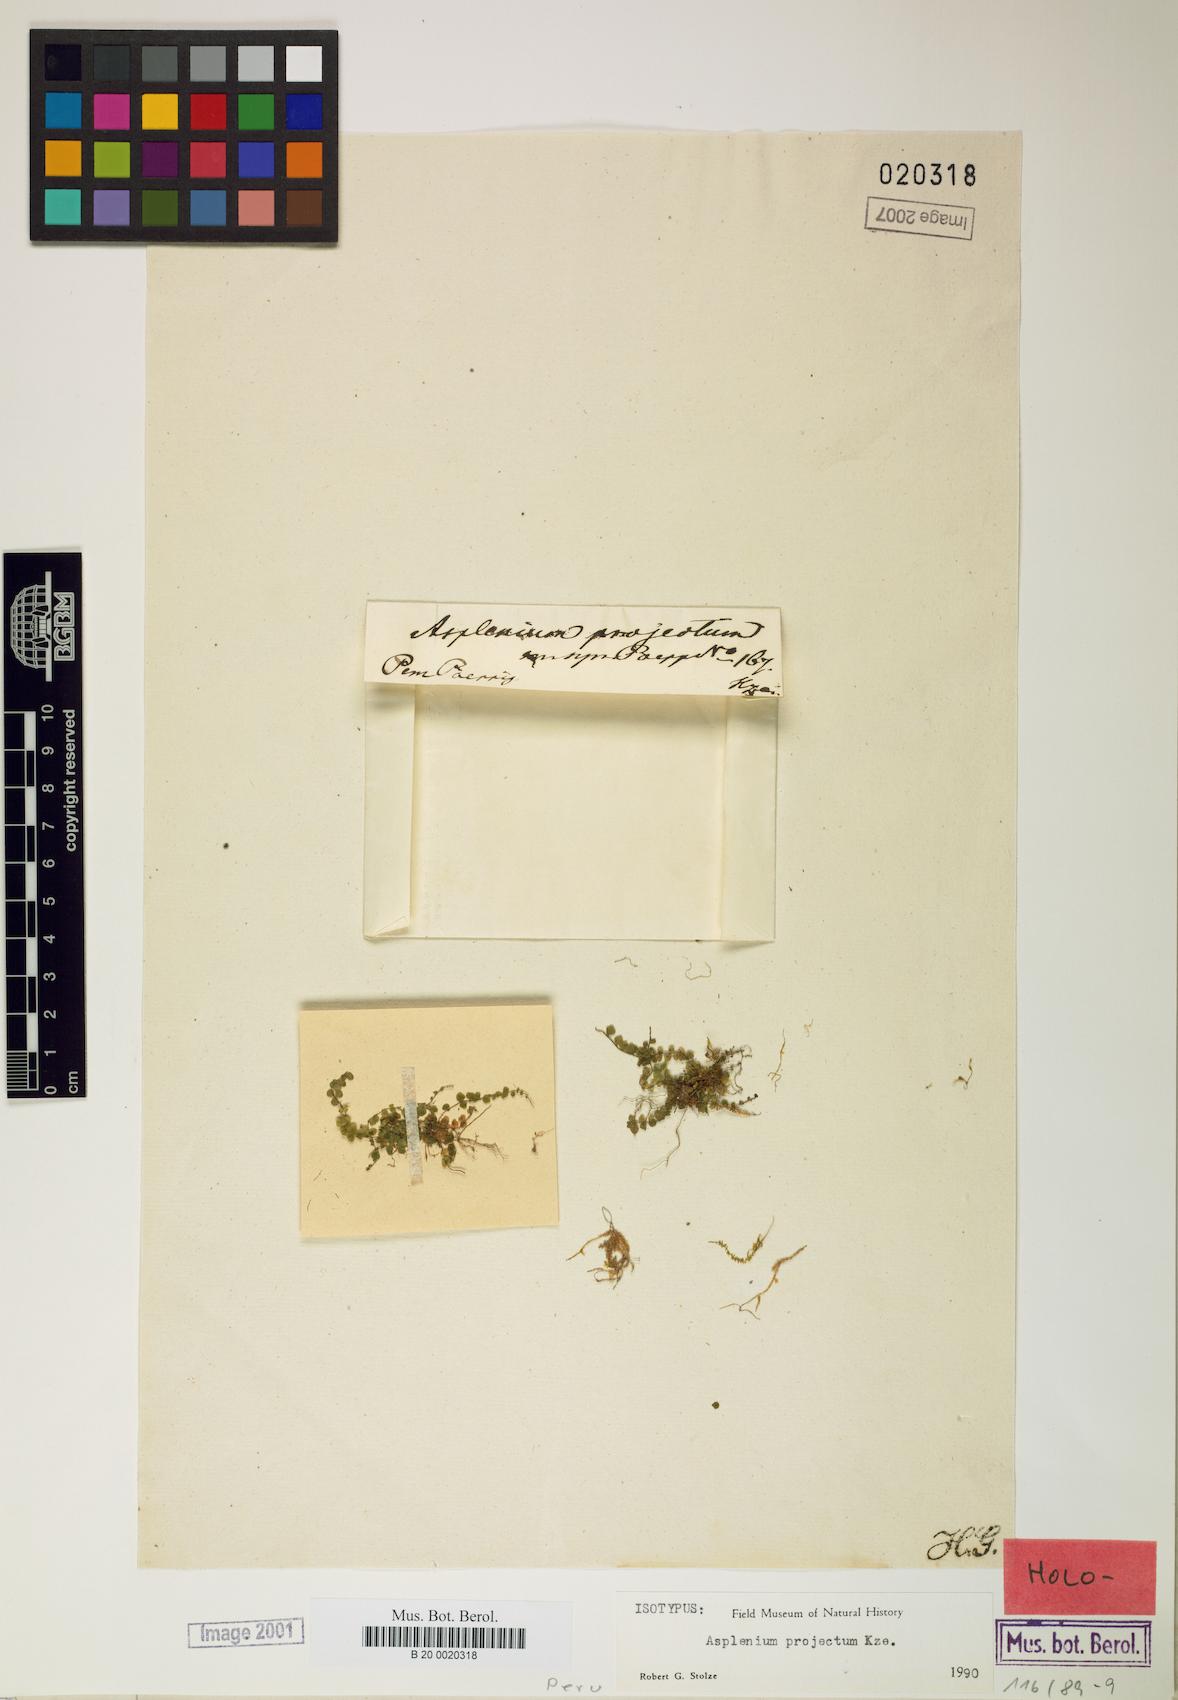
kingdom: Plantae
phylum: Tracheophyta
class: Polypodiopsida
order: Polypodiales
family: Aspleniaceae
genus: Asplenium
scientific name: Asplenium projectum
